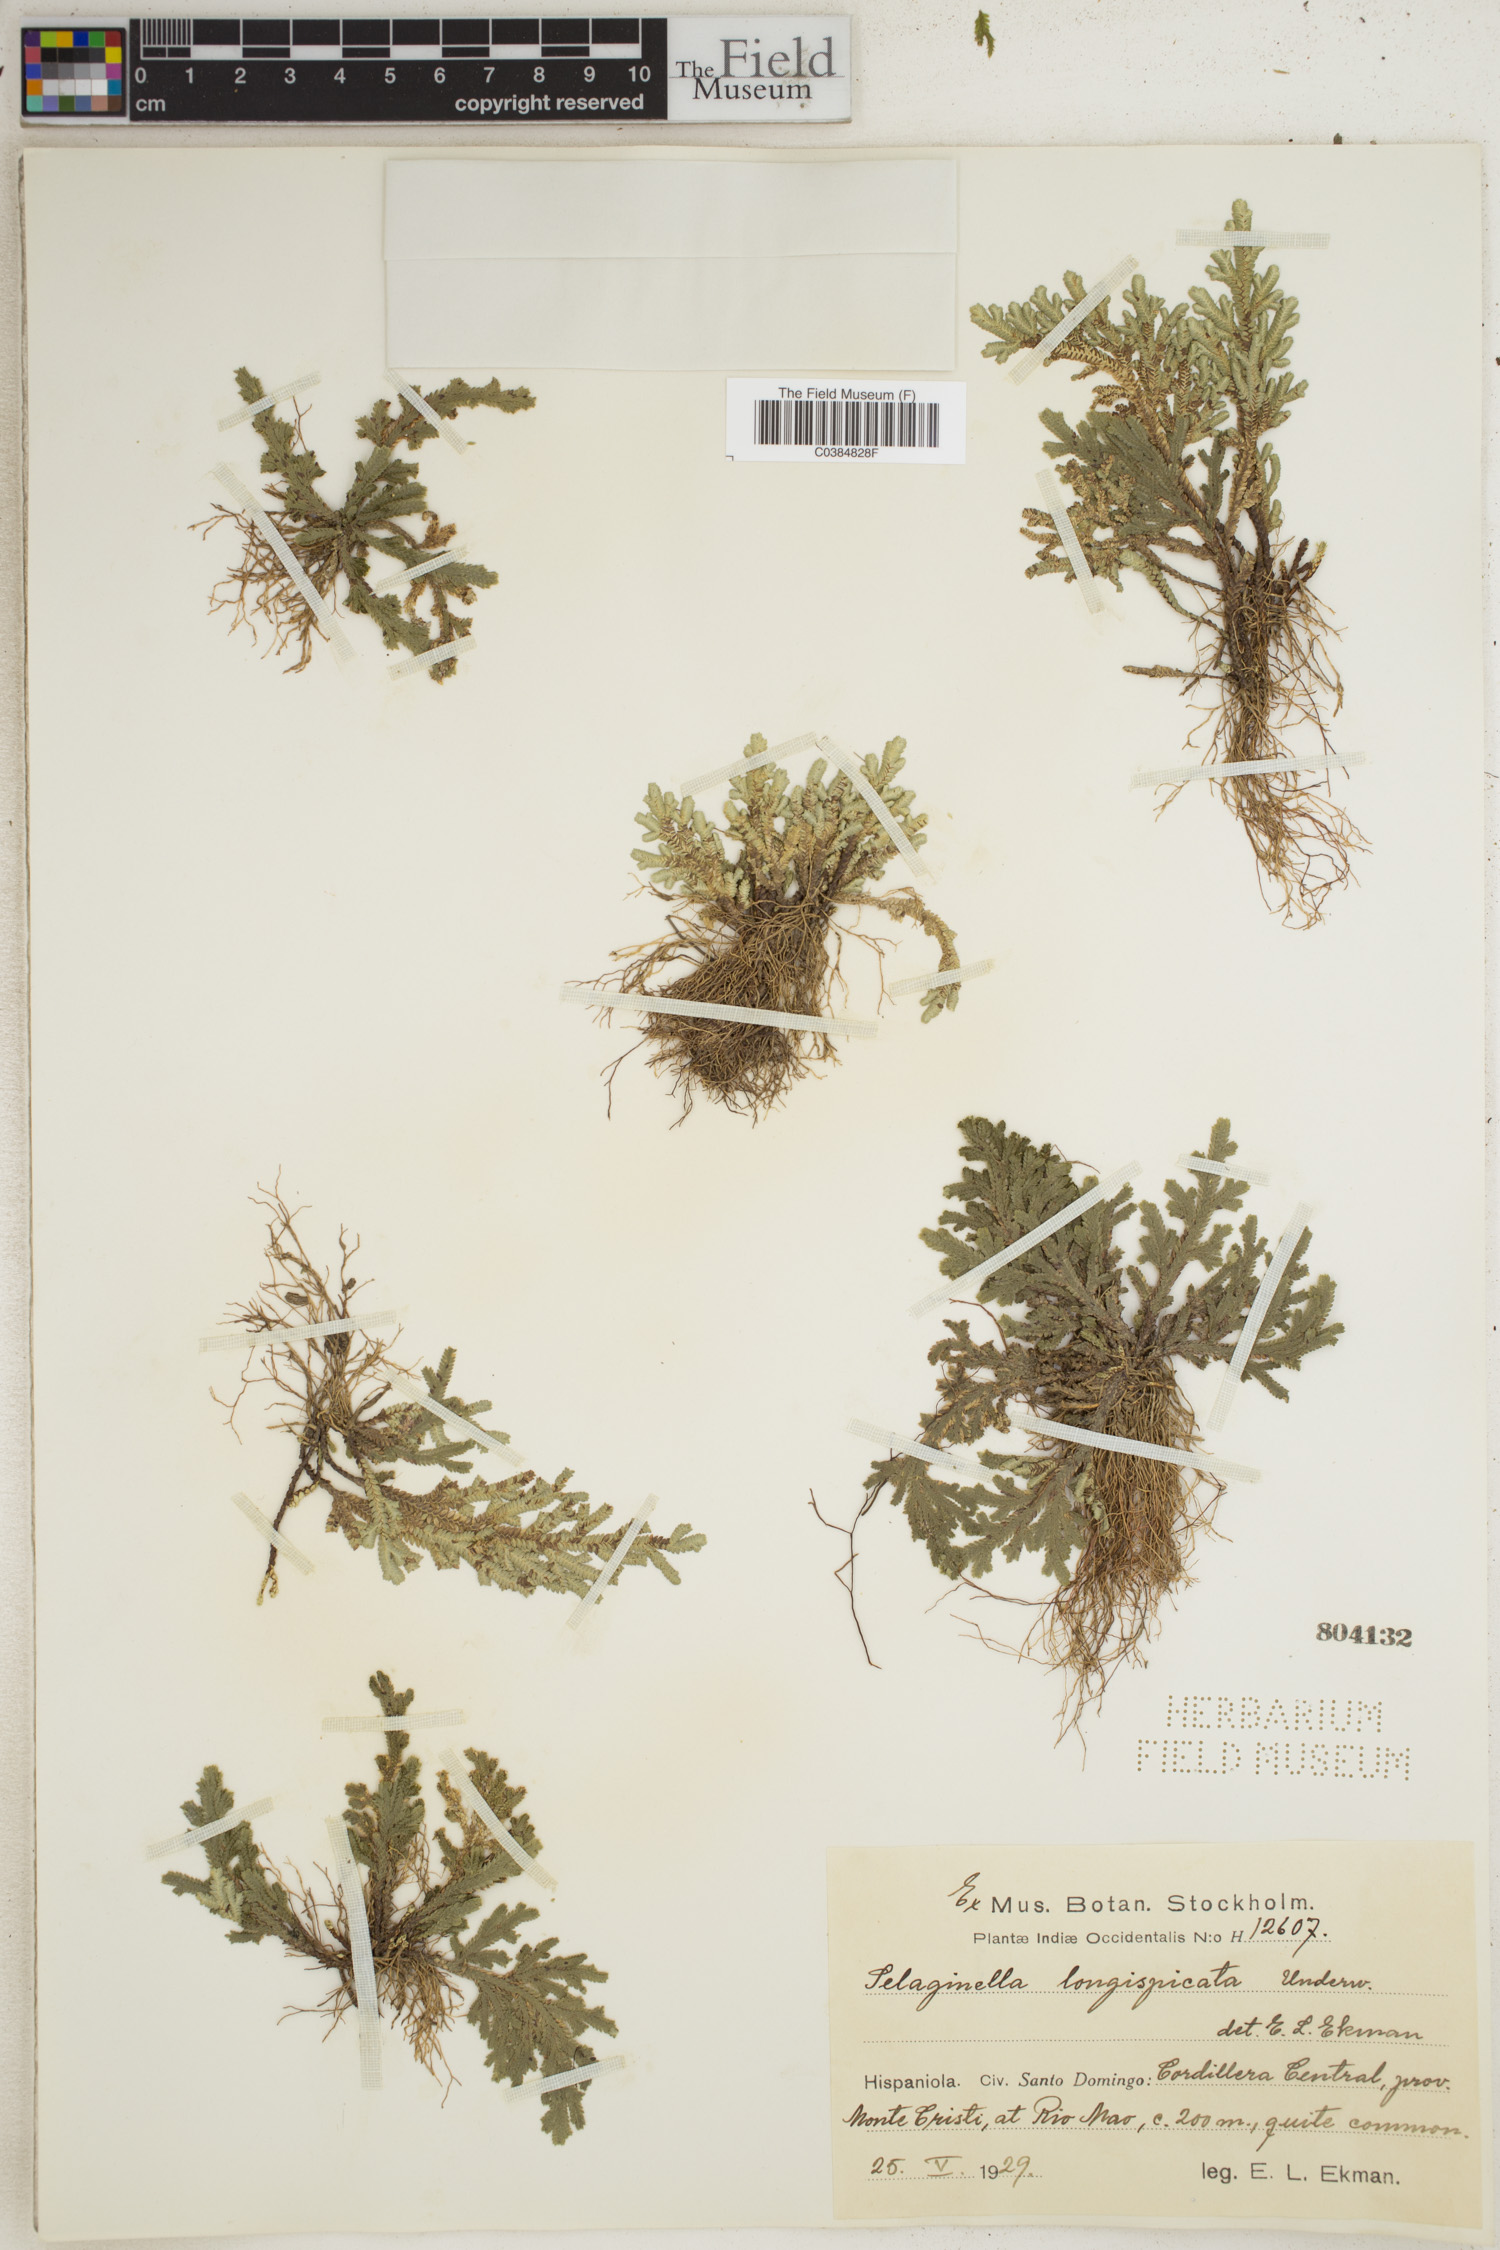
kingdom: Plantae
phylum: Tracheophyta
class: Lycopodiopsida
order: Selaginellales
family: Selaginellaceae
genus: Selaginella
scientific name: Selaginella convoluta
